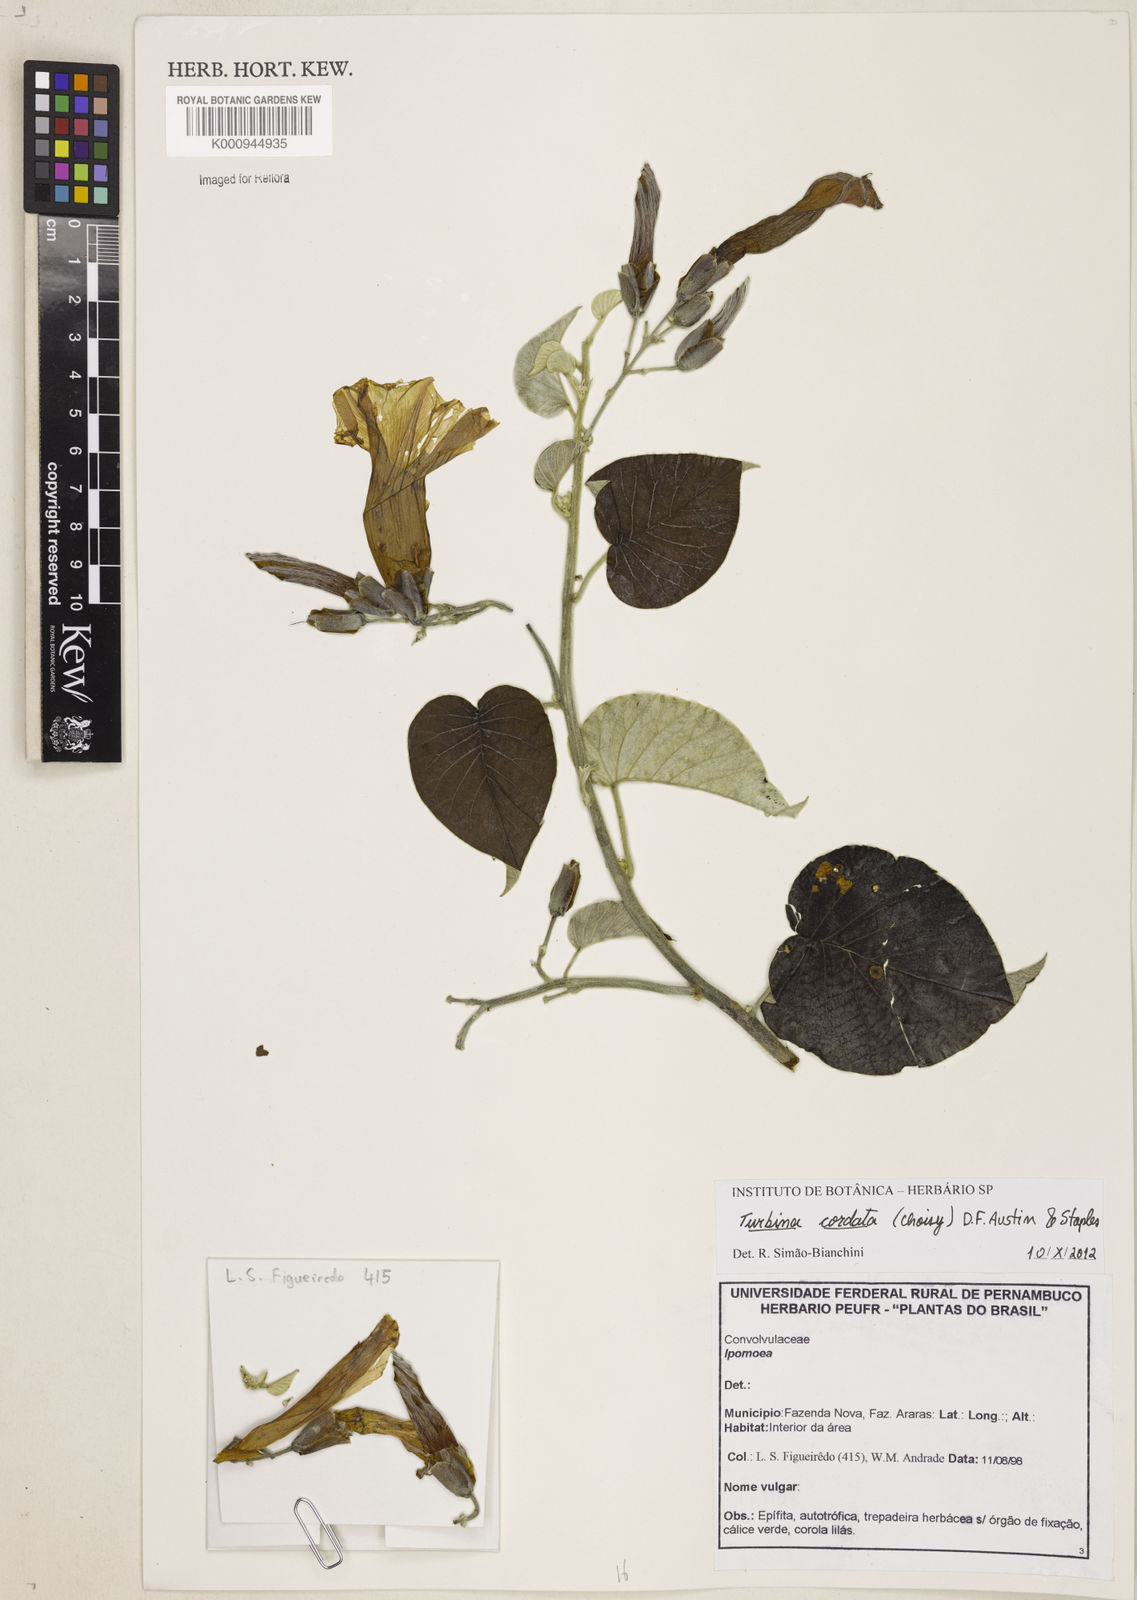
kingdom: Plantae
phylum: Tracheophyta
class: Magnoliopsida
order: Solanales
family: Convolvulaceae
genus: Ipomoea
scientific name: Ipomoea sericosepala
